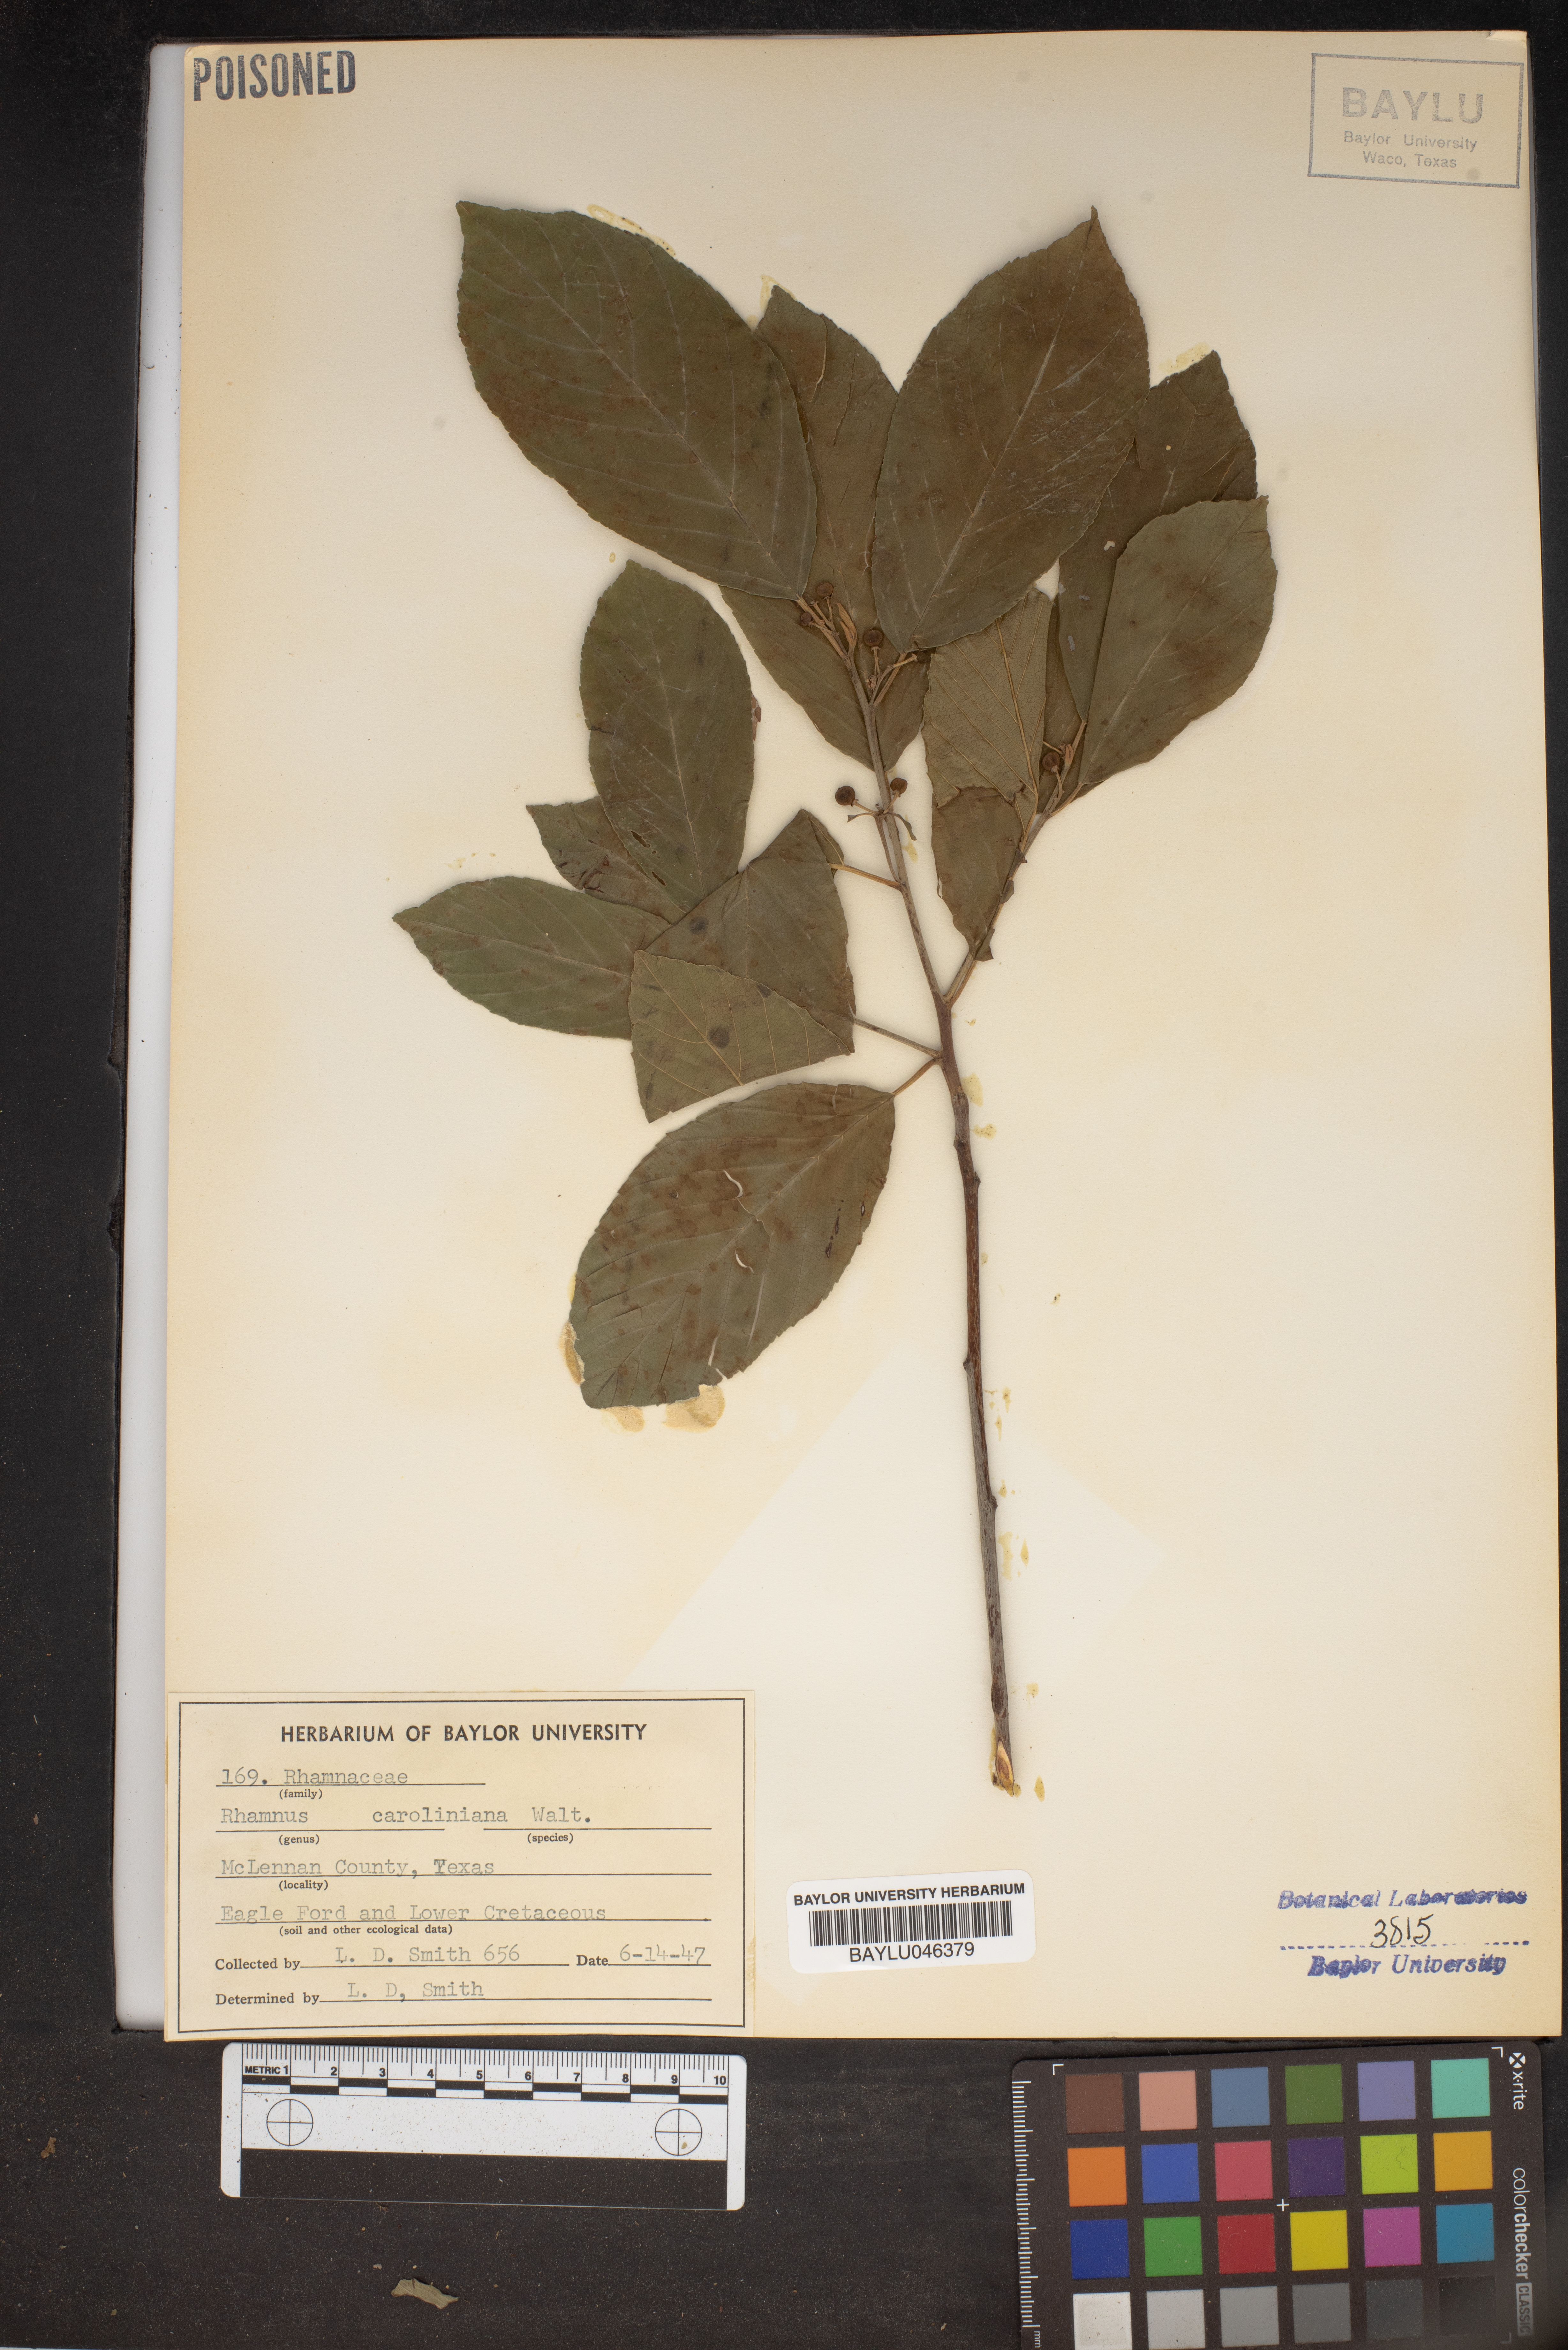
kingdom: Plantae
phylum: Tracheophyta
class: Magnoliopsida
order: Rosales
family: Rhamnaceae
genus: Frangula
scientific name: Frangula caroliniana
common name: Carolina buckthorn
